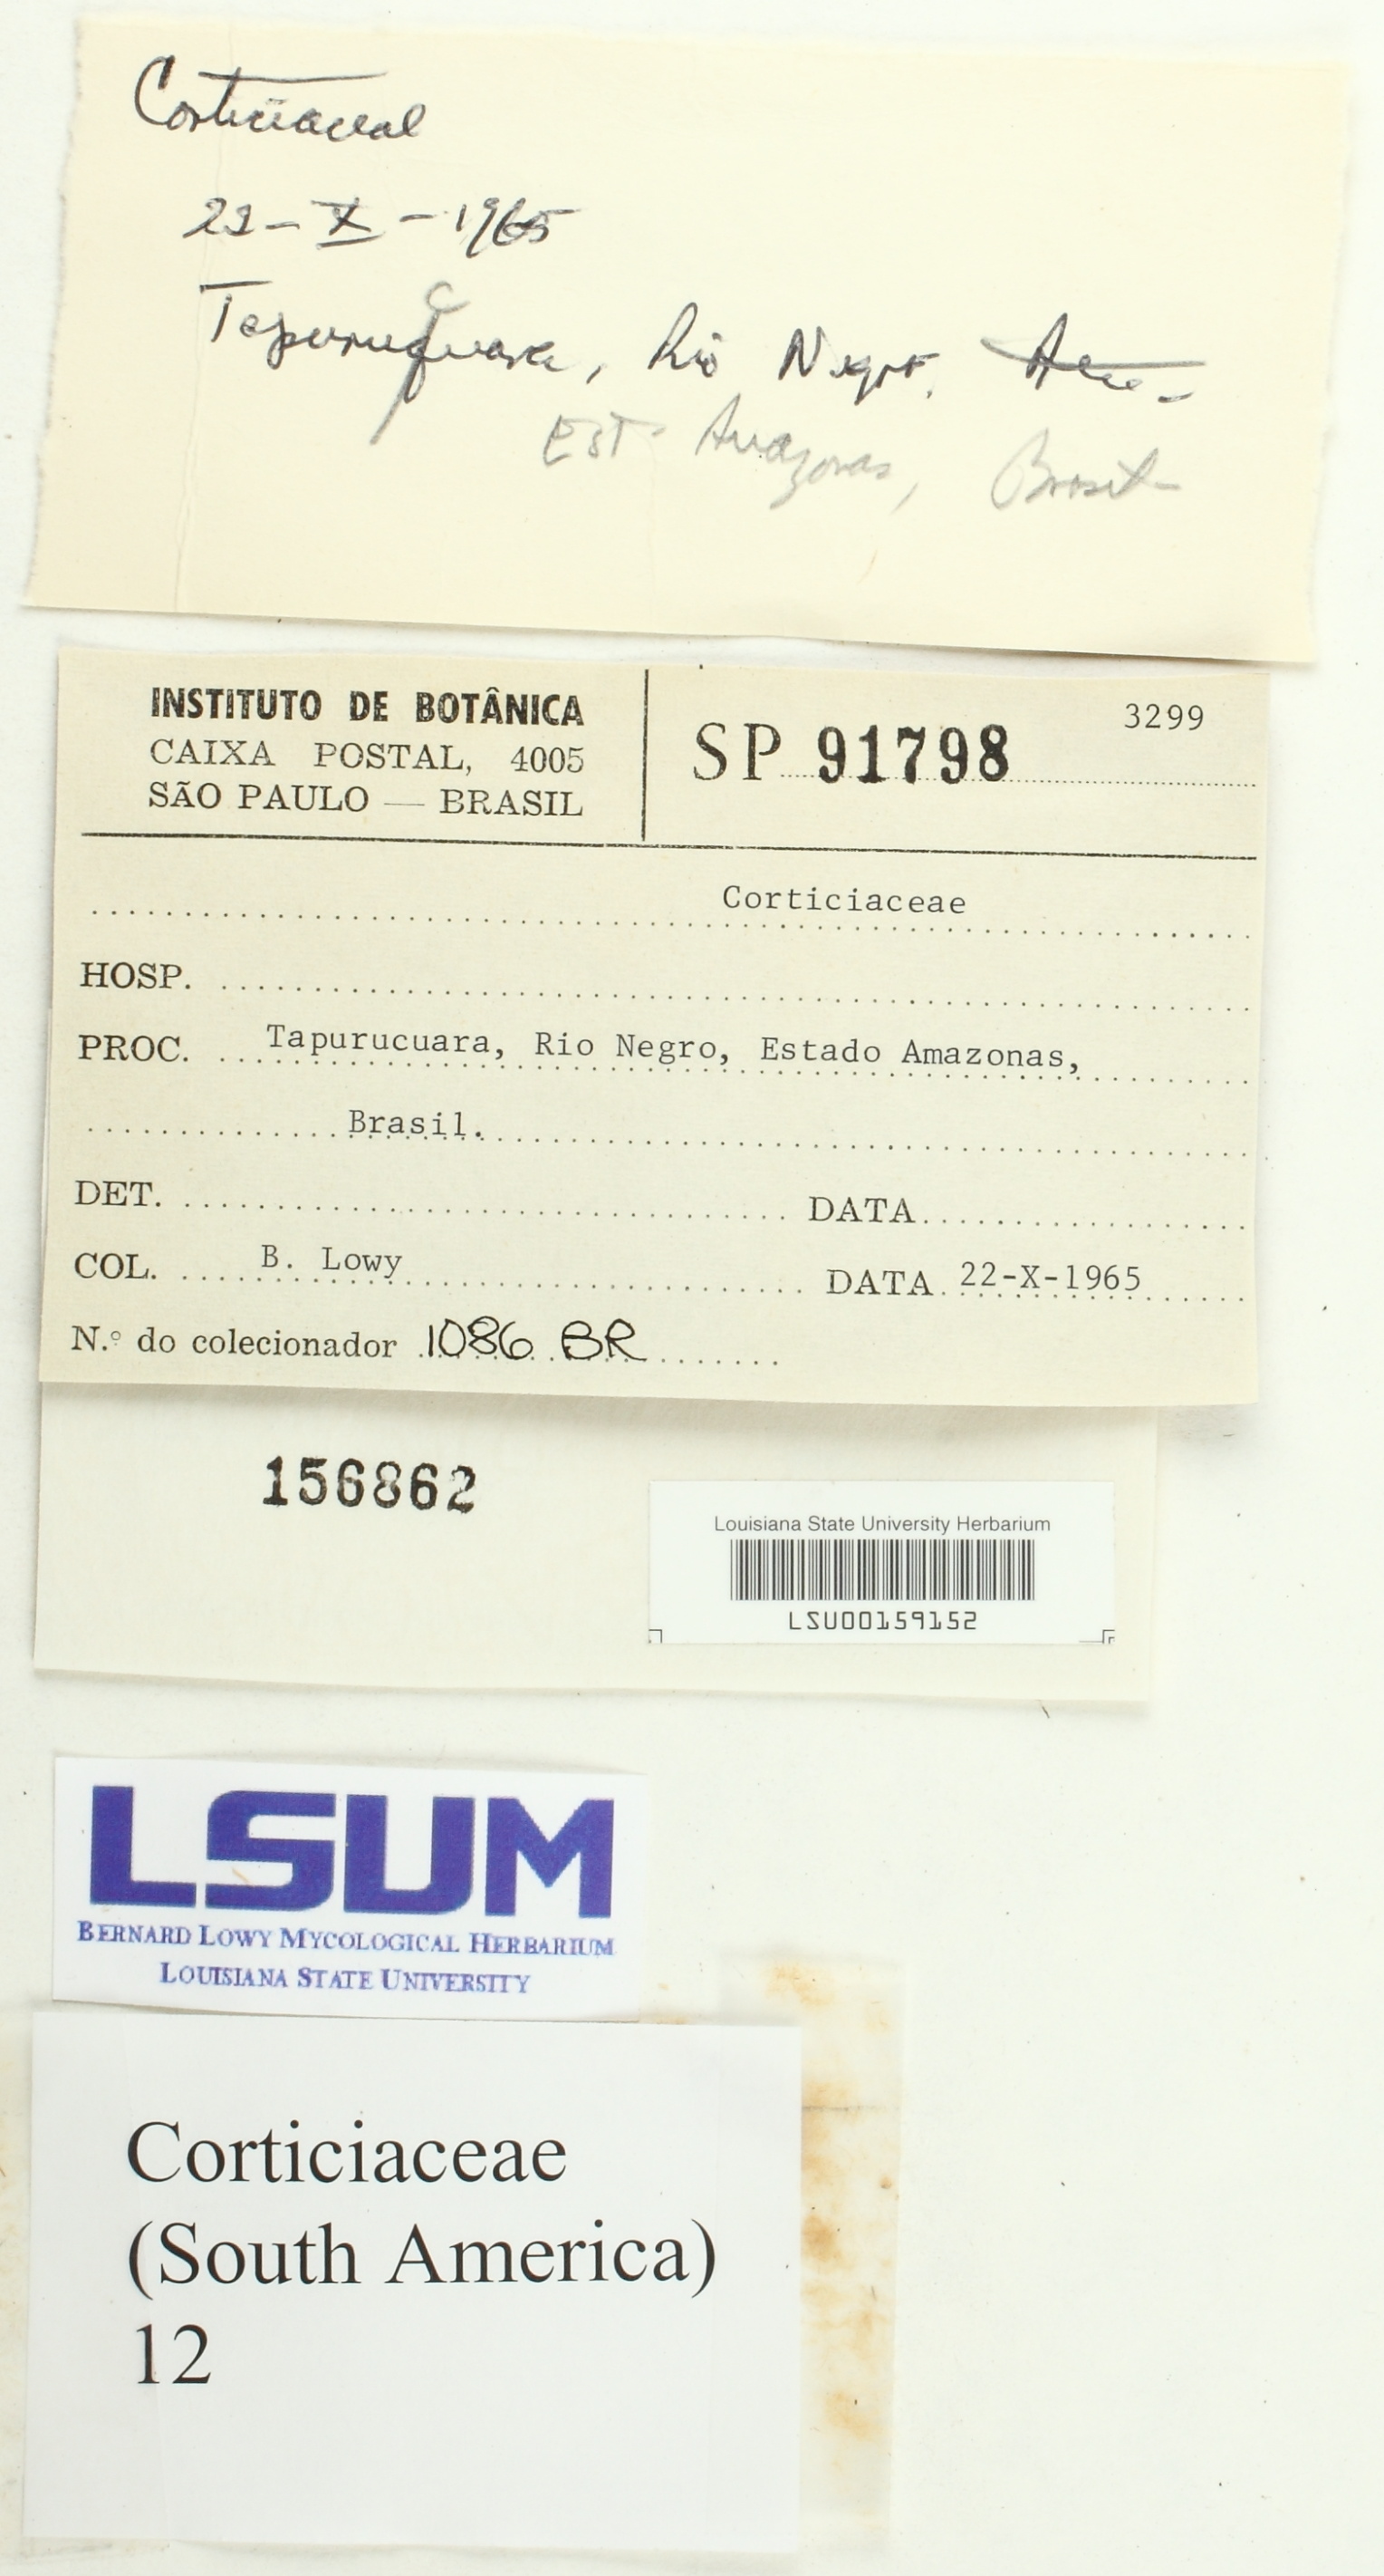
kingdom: Fungi
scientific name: Fungi
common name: Fungi
